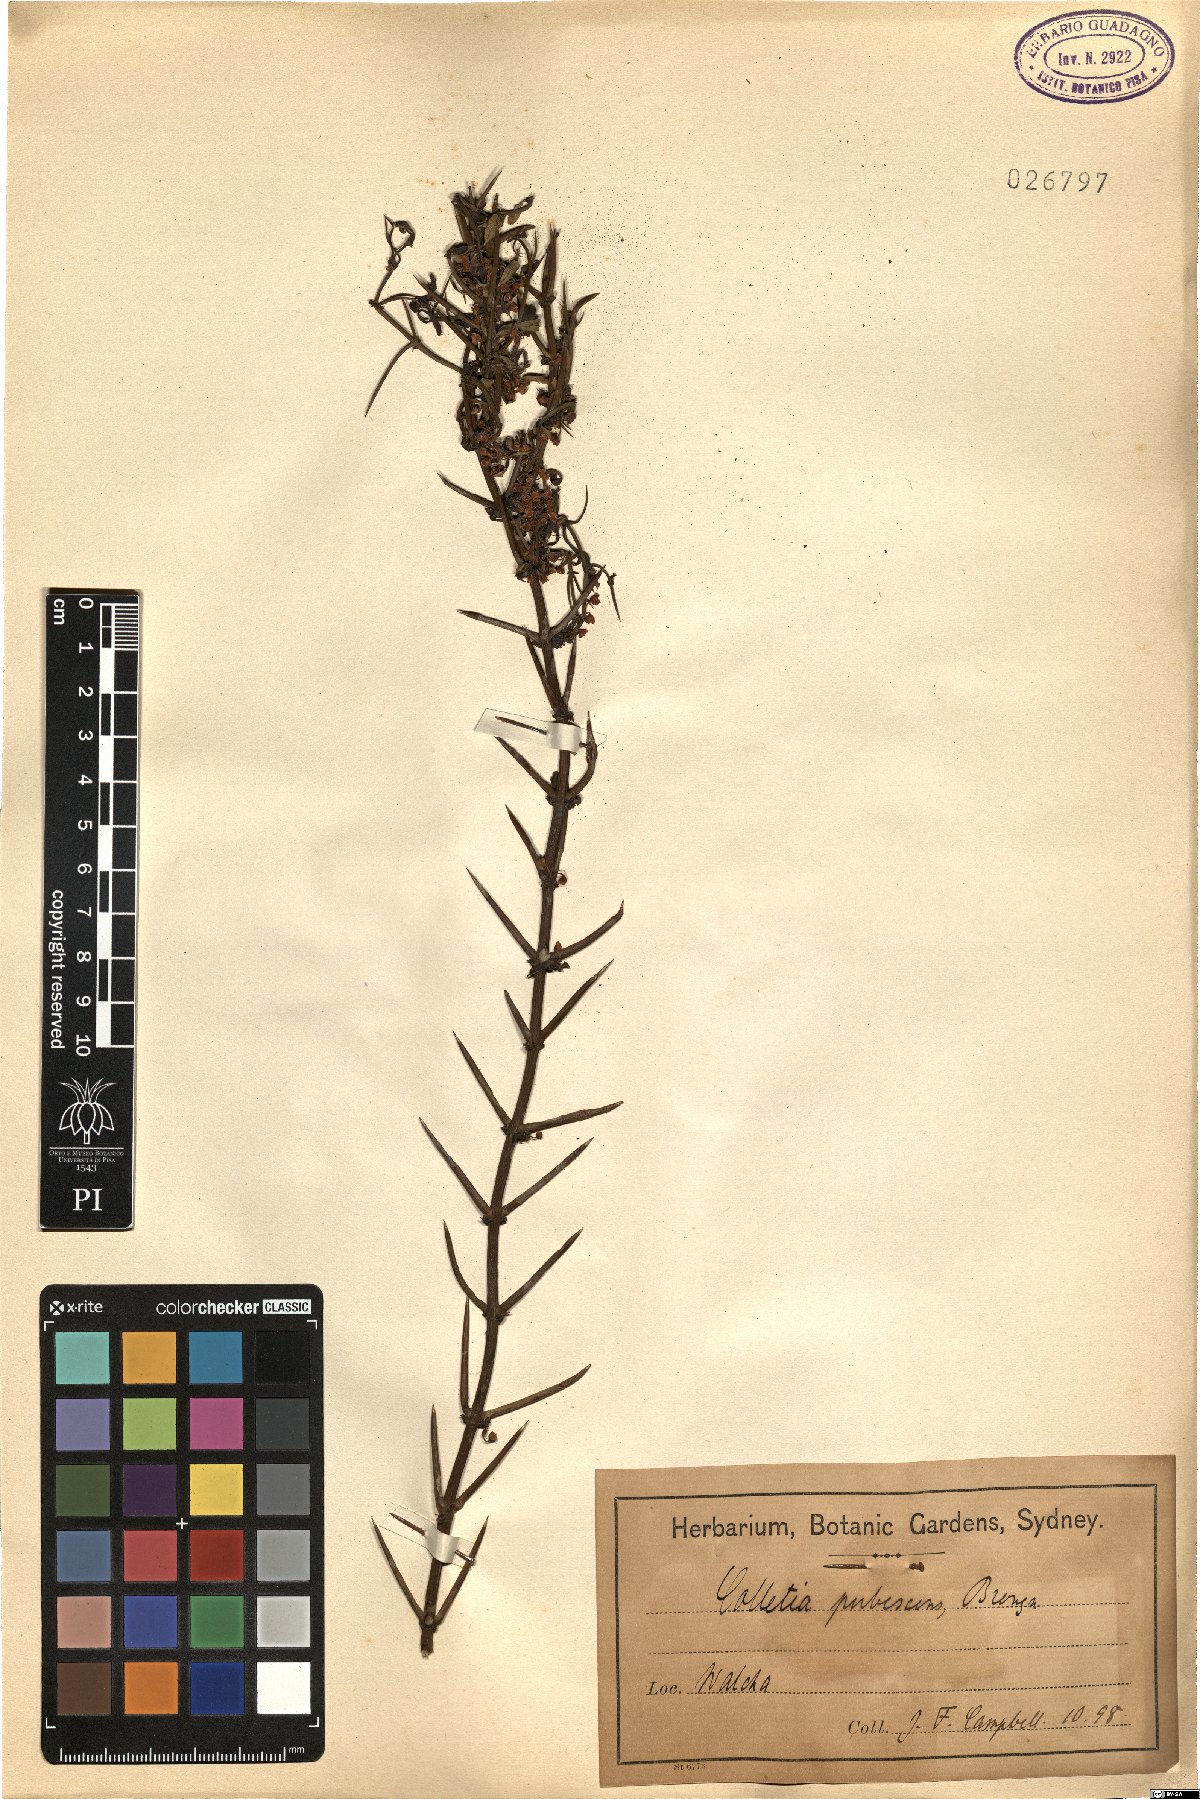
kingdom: Plantae
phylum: Tracheophyta
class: Magnoliopsida
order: Rosales
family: Rhamnaceae
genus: Discaria
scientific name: Discaria pubescens
